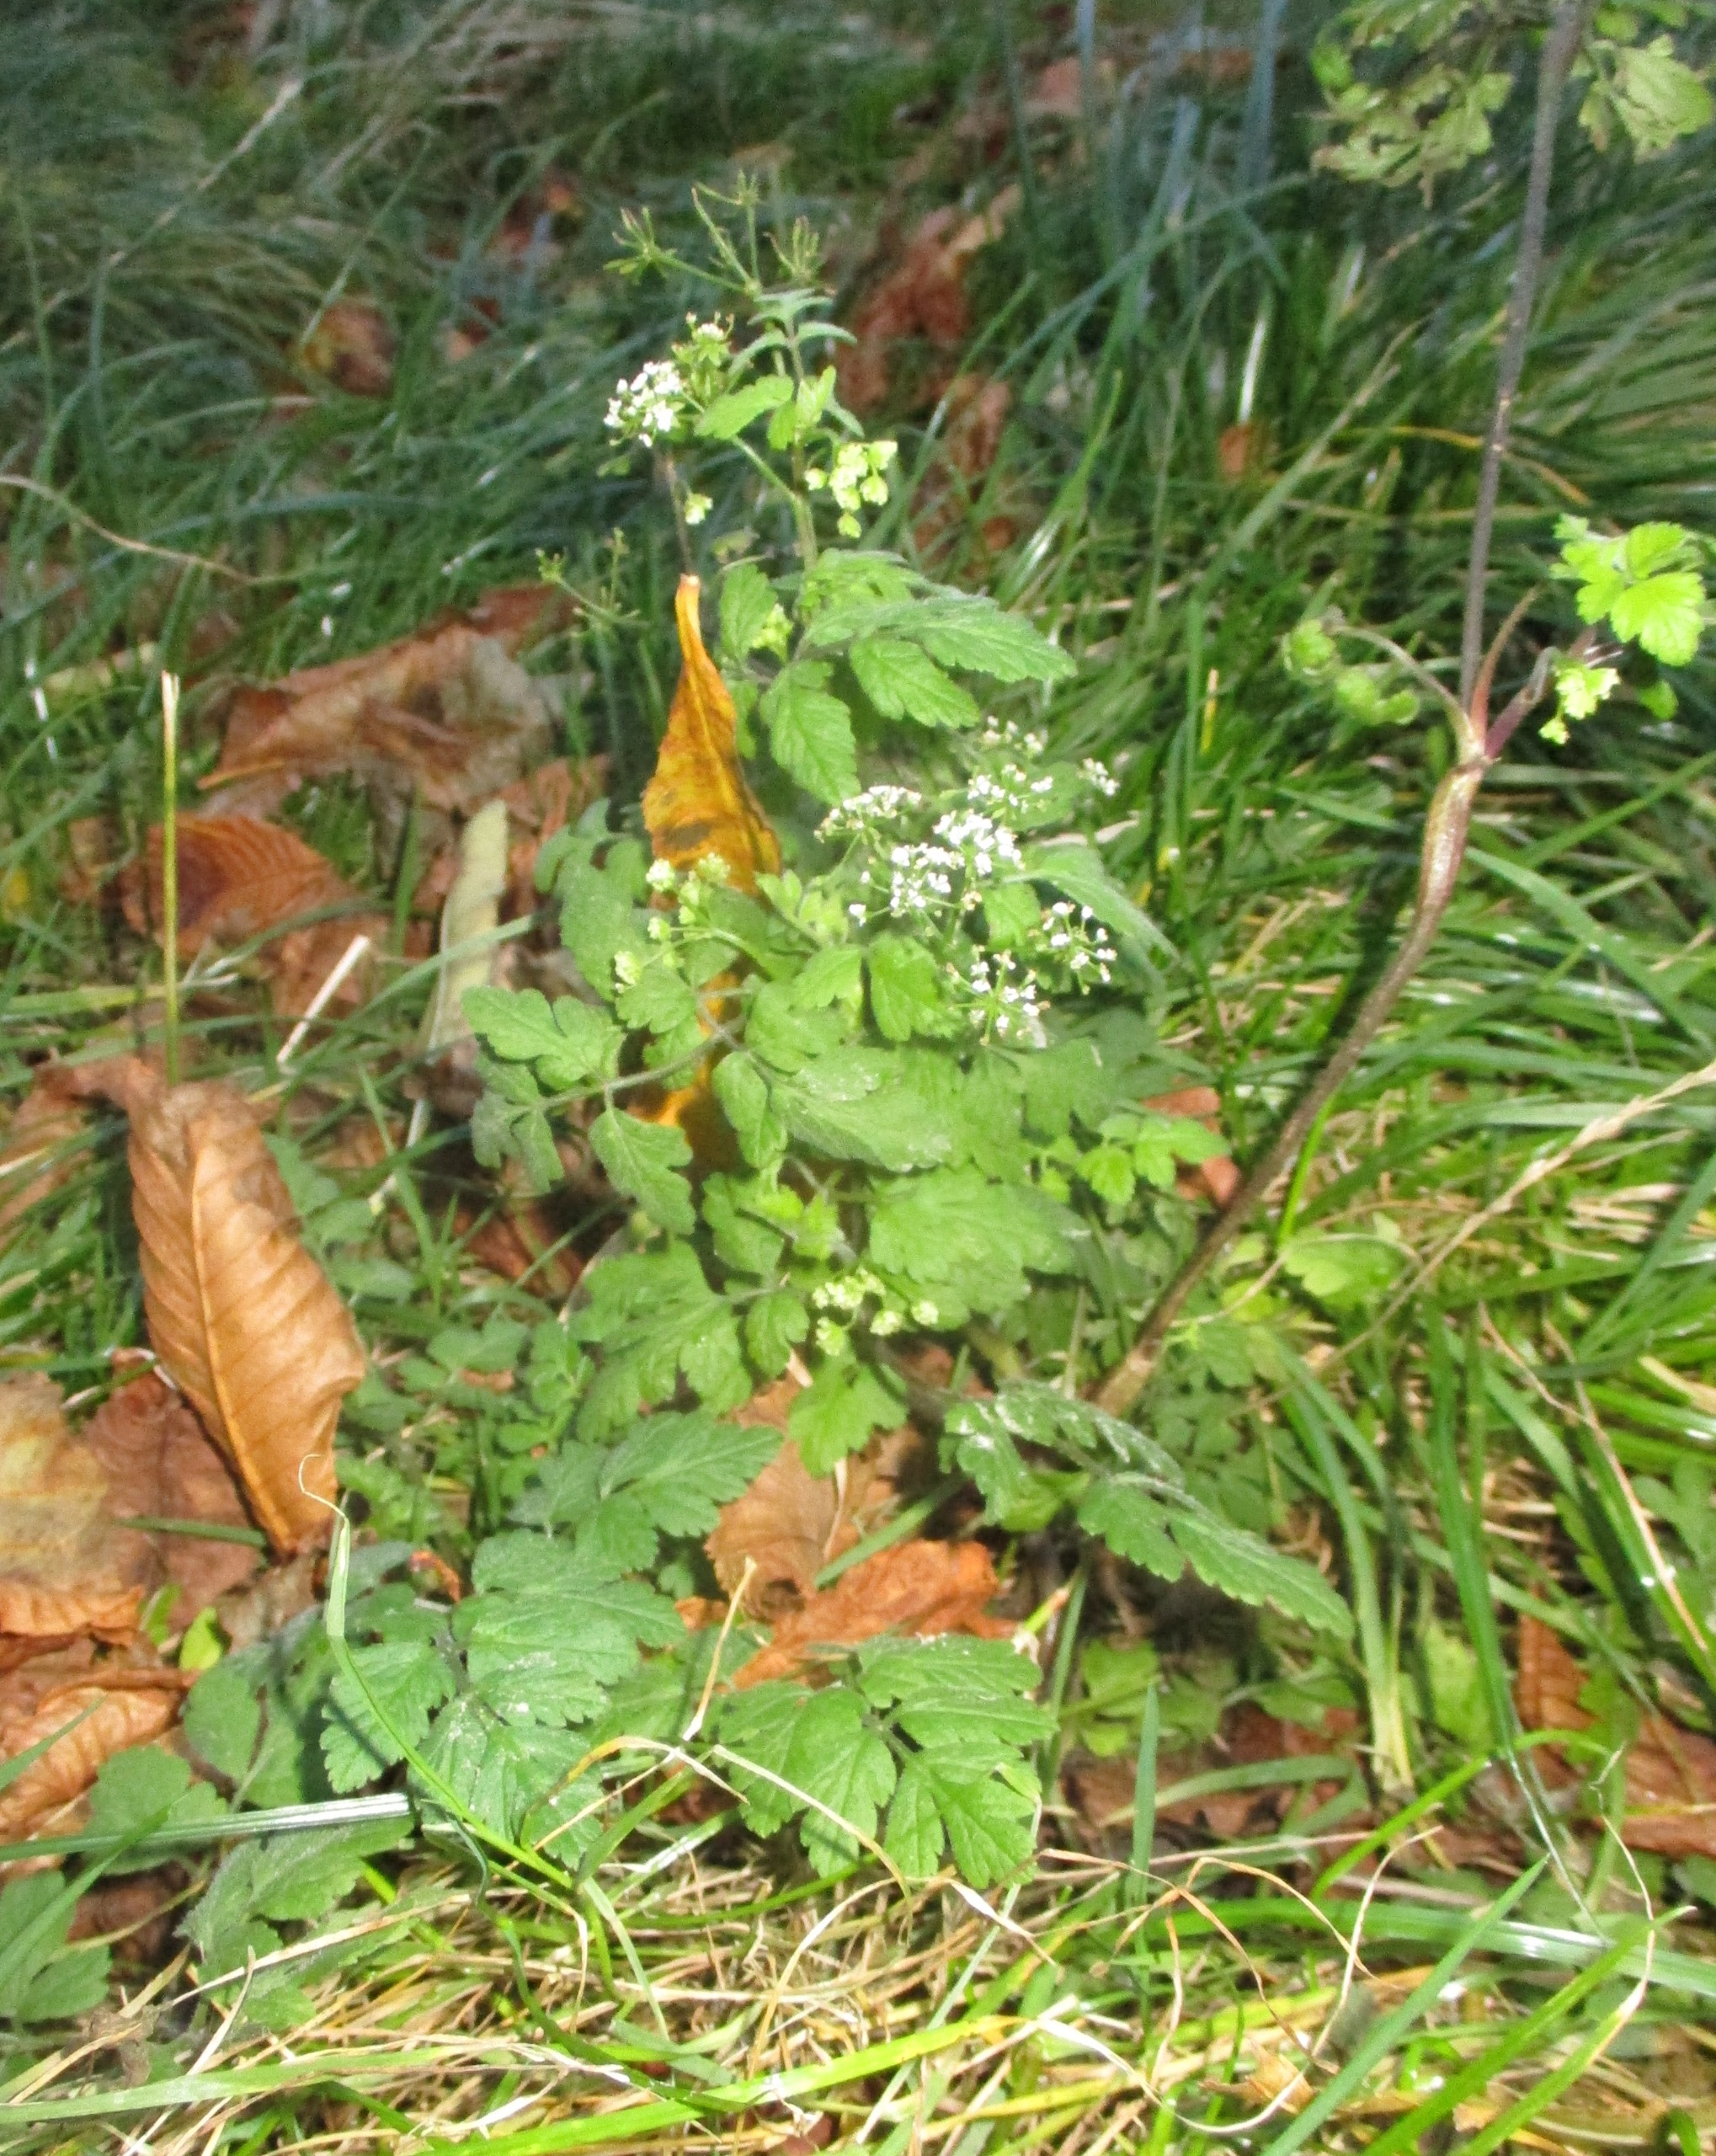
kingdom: Plantae
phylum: Tracheophyta
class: Magnoliopsida
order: Apiales
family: Apiaceae
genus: Chaerophyllum
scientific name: Chaerophyllum temulum
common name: Almindelig hulsvøb
